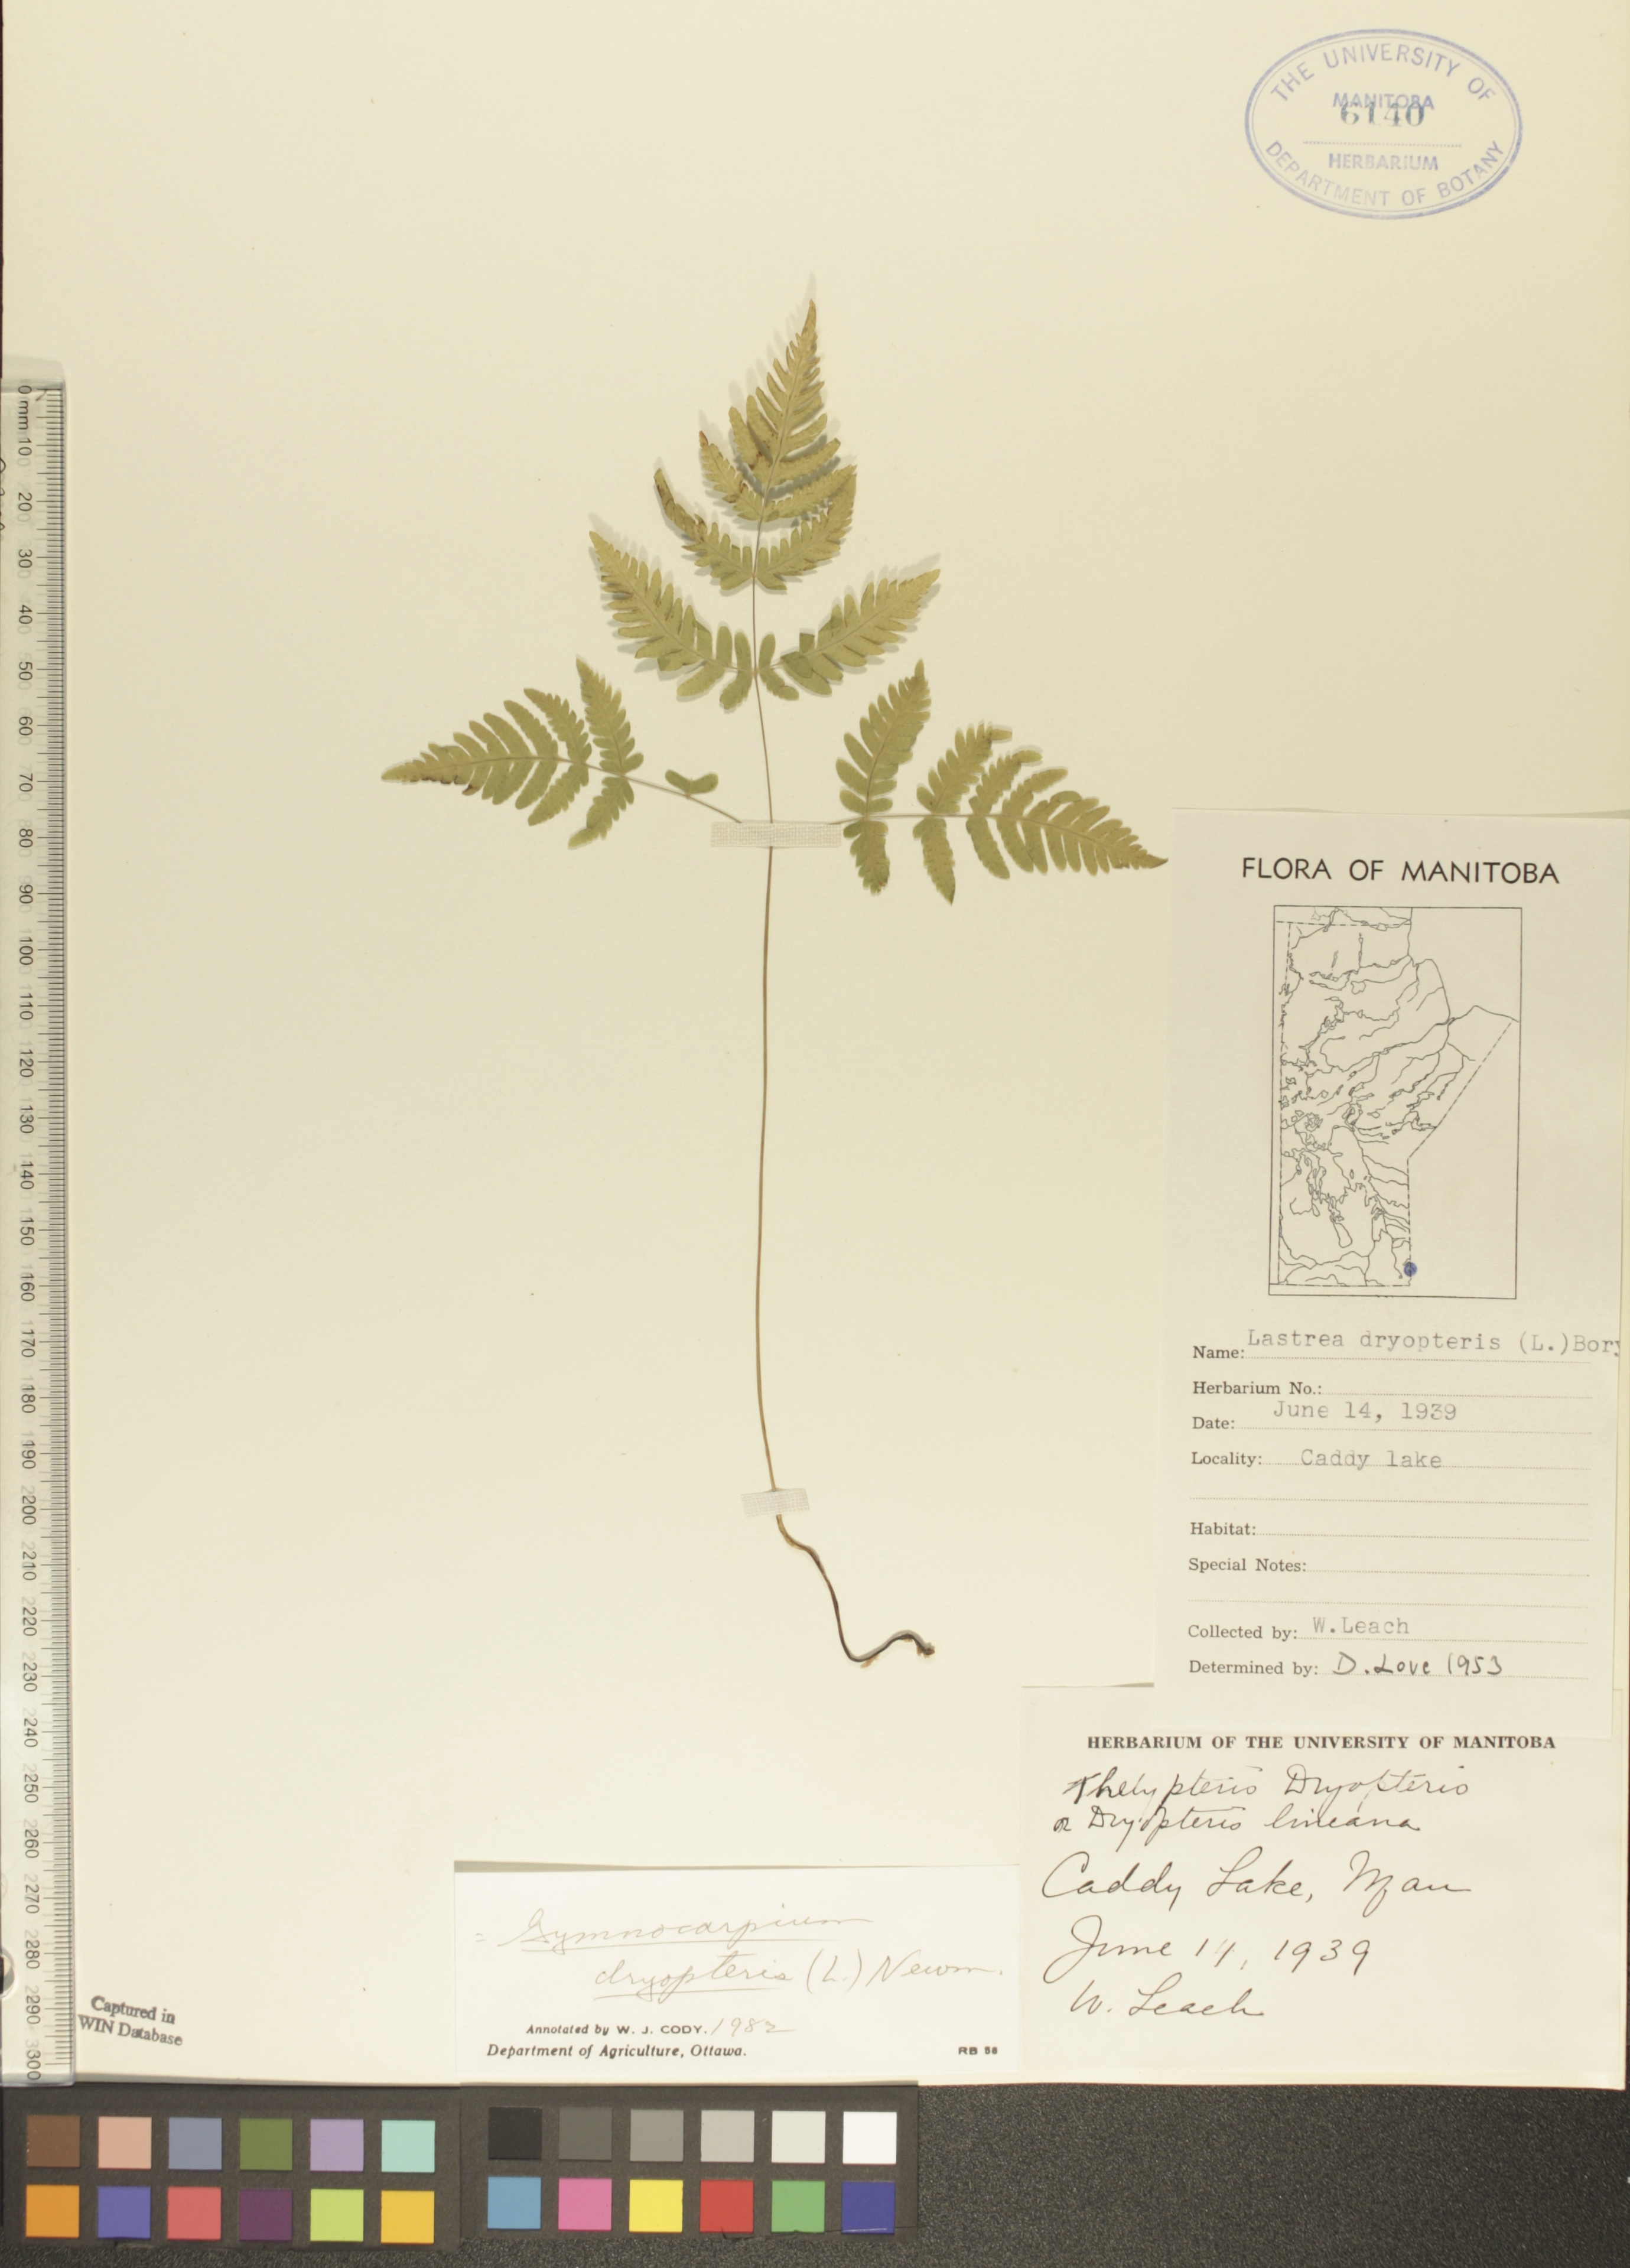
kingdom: Plantae
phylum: Tracheophyta
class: Polypodiopsida
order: Polypodiales
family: Cystopteridaceae
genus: Gymnocarpium
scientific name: Gymnocarpium dryopteris
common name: Oak fern
